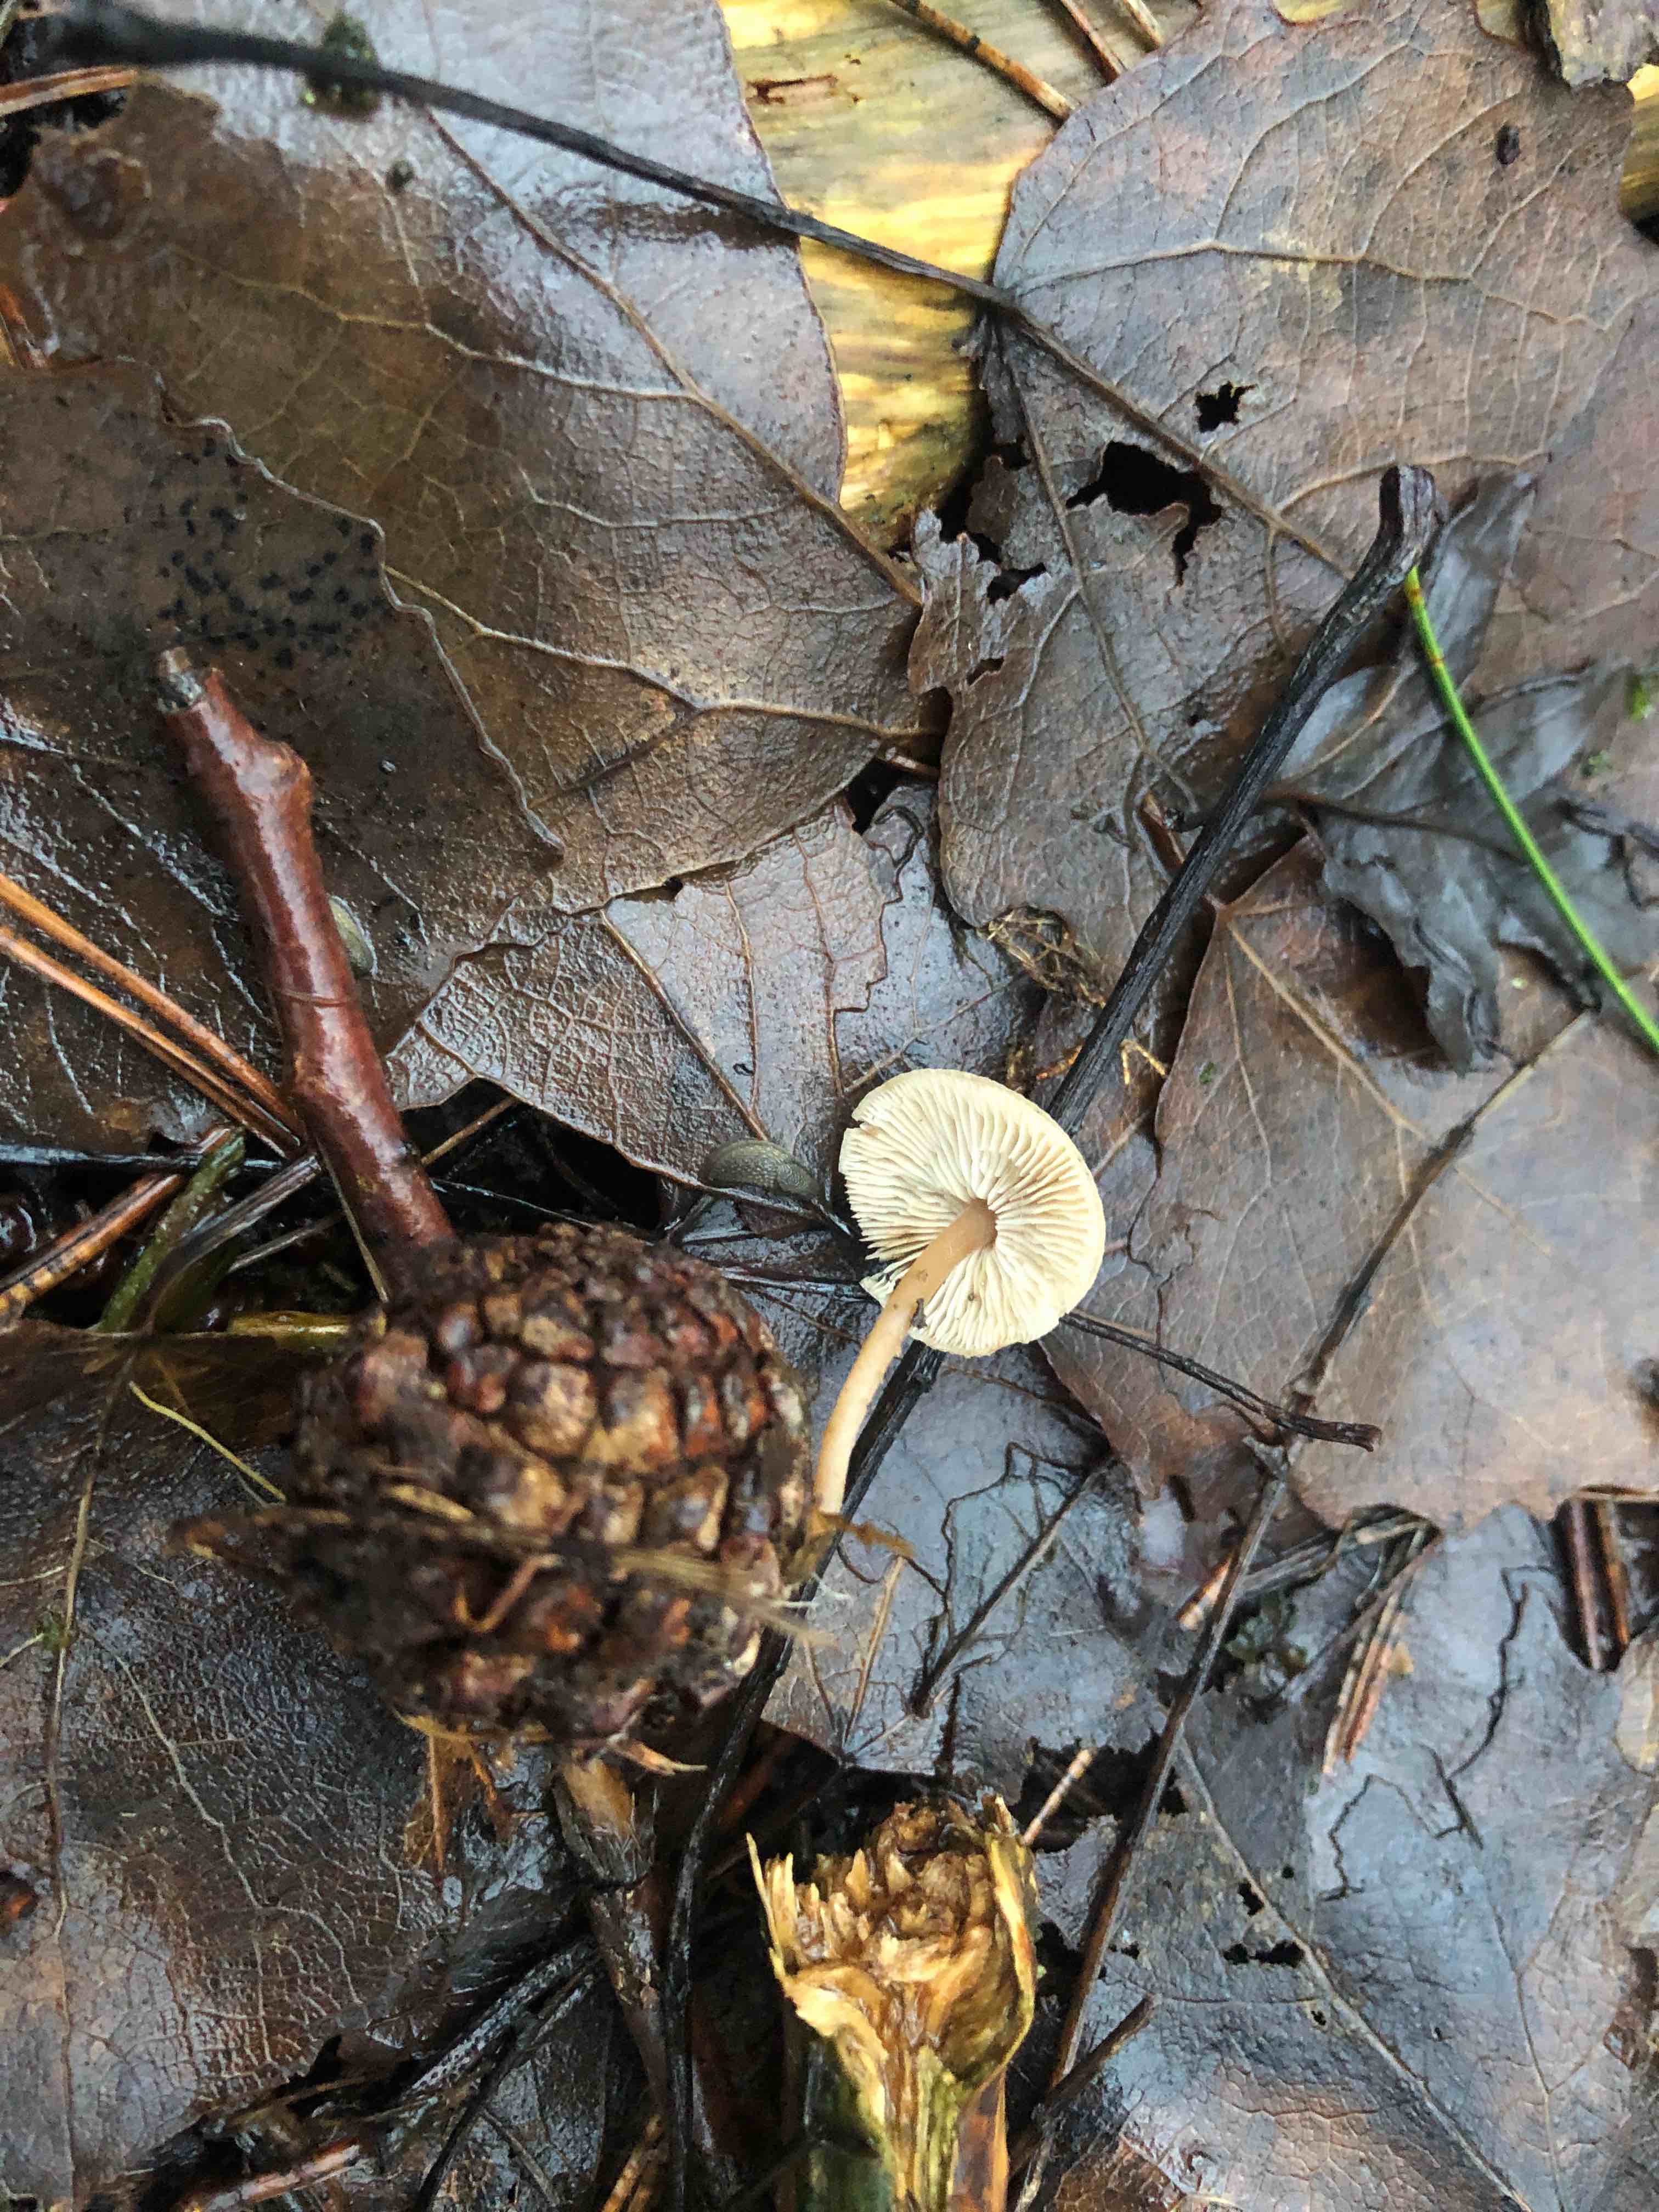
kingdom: Fungi
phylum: Basidiomycota
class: Agaricomycetes
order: Agaricales
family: Marasmiaceae
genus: Baeospora
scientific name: Baeospora myosura
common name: koglebruskhat
